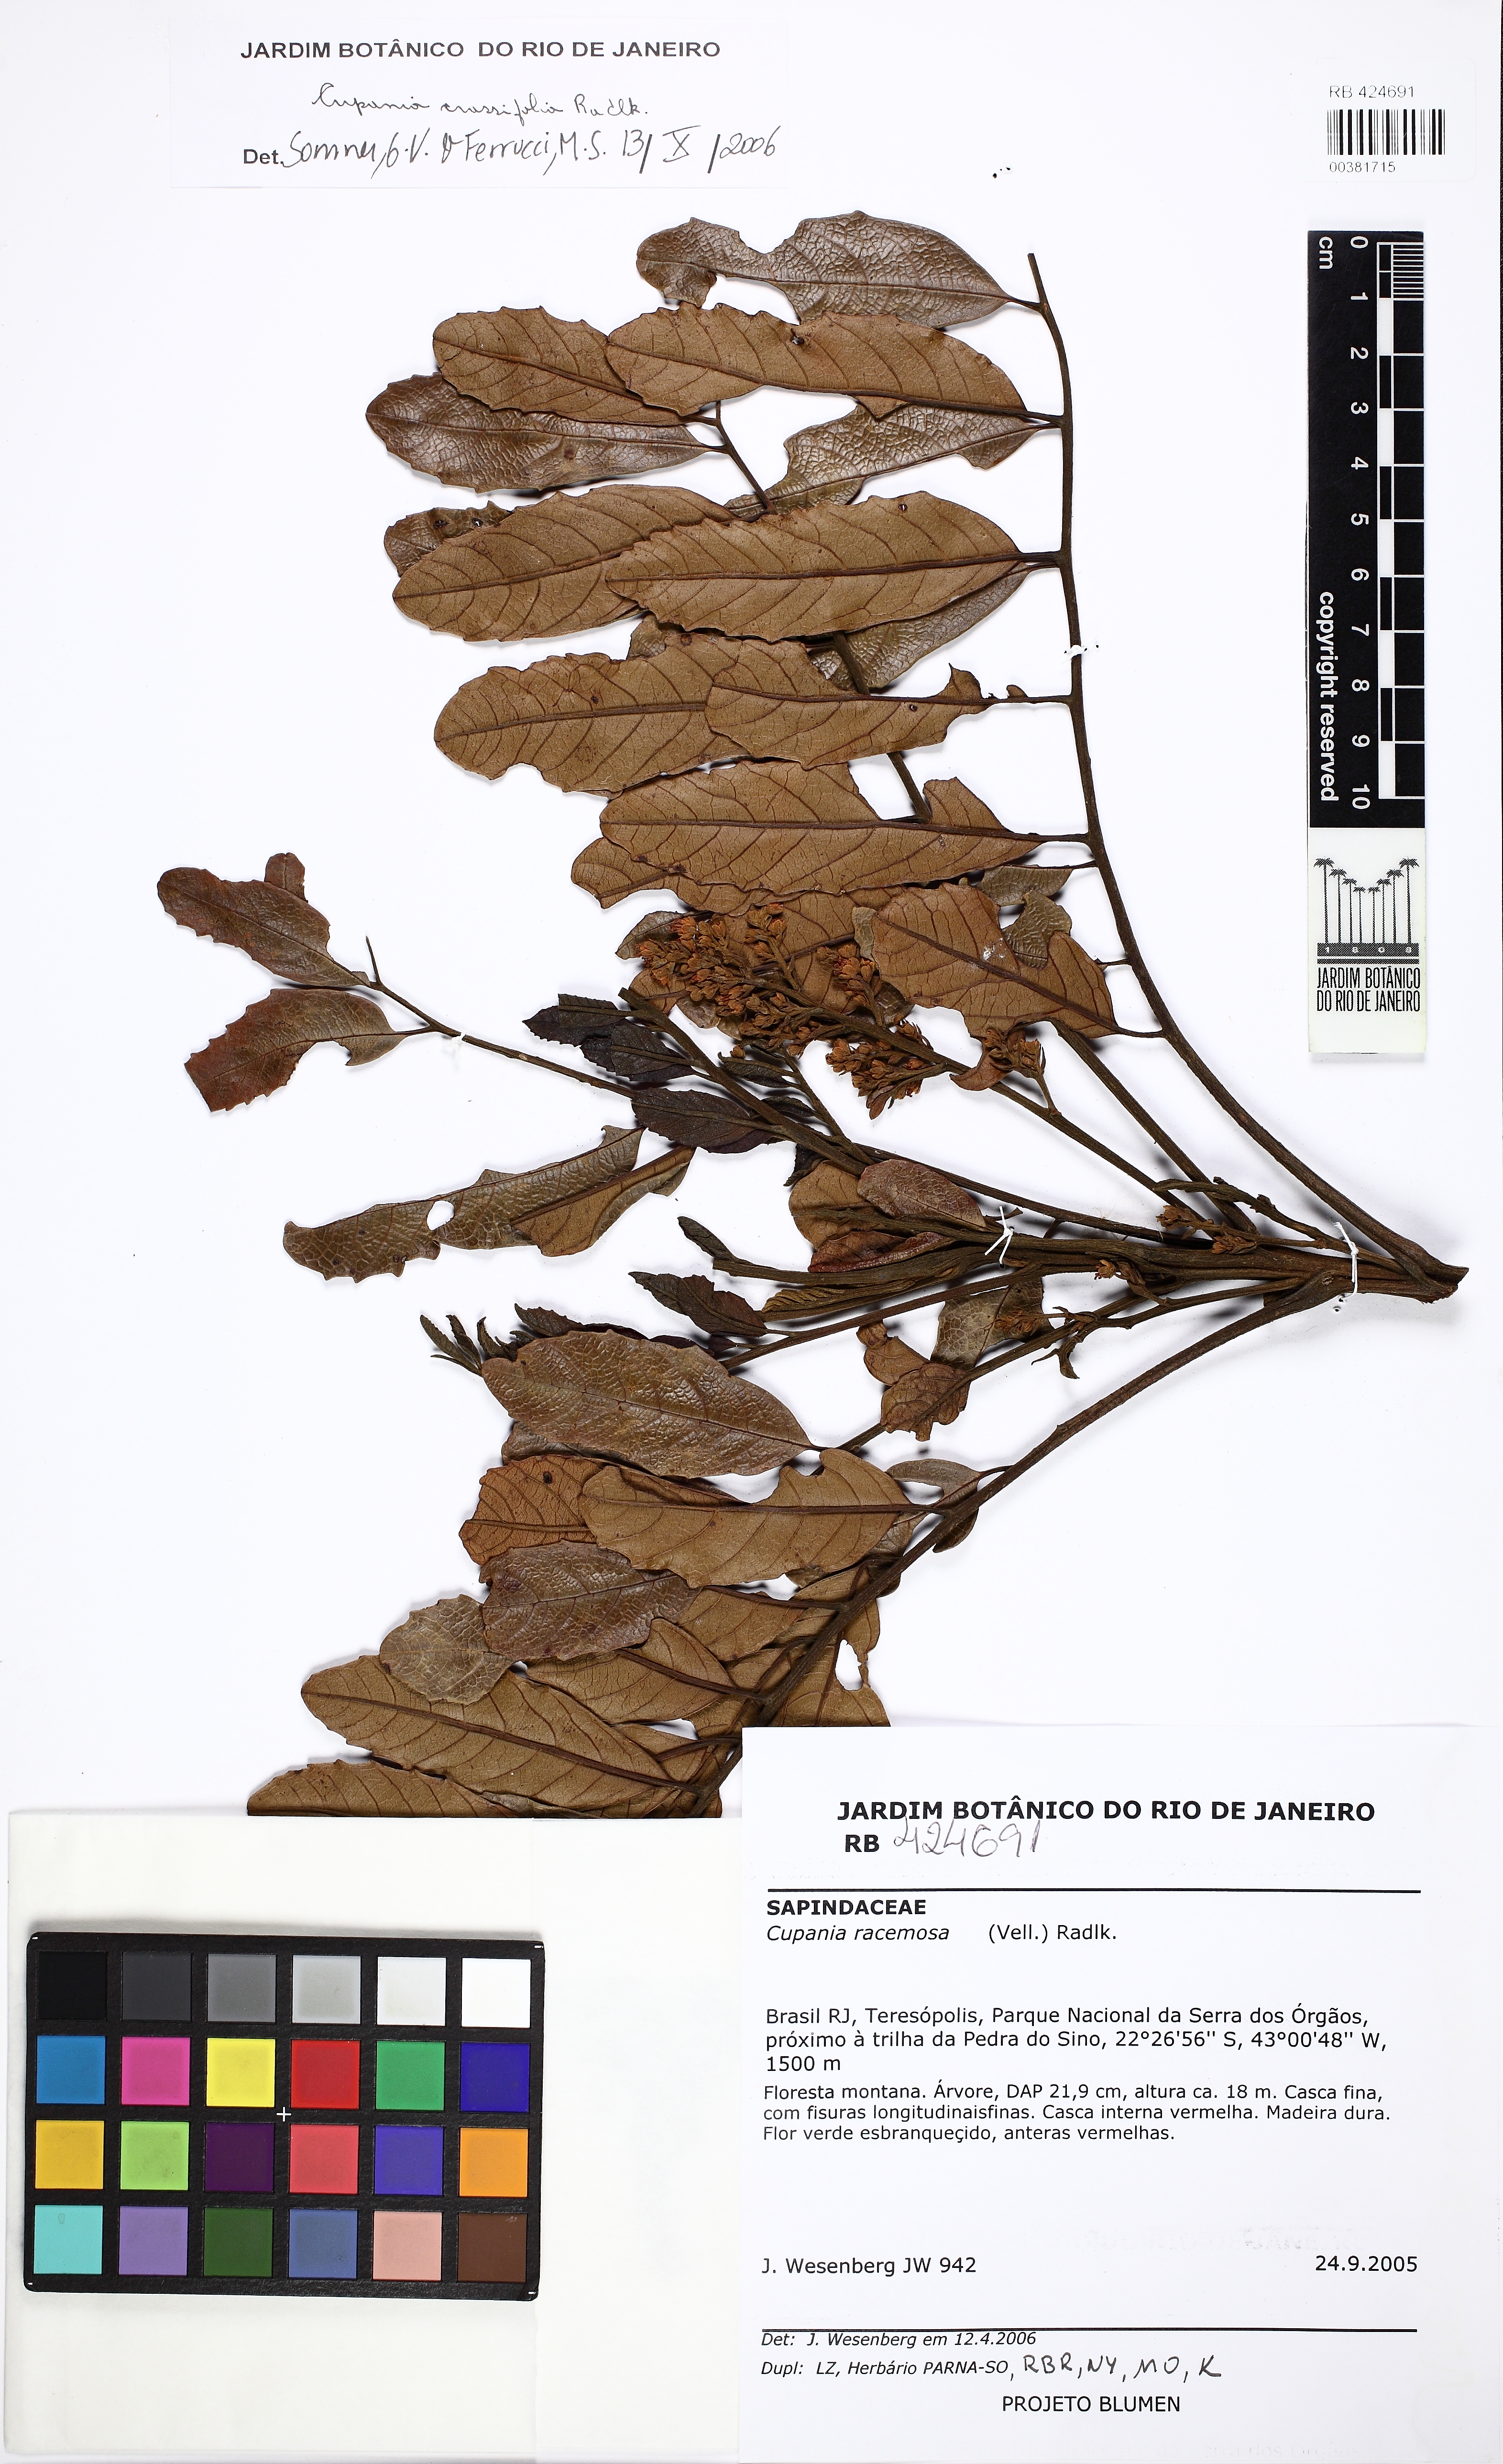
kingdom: Plantae
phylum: Tracheophyta
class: Magnoliopsida
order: Sapindales
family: Sapindaceae
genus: Cupania
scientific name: Cupania crassifolia
